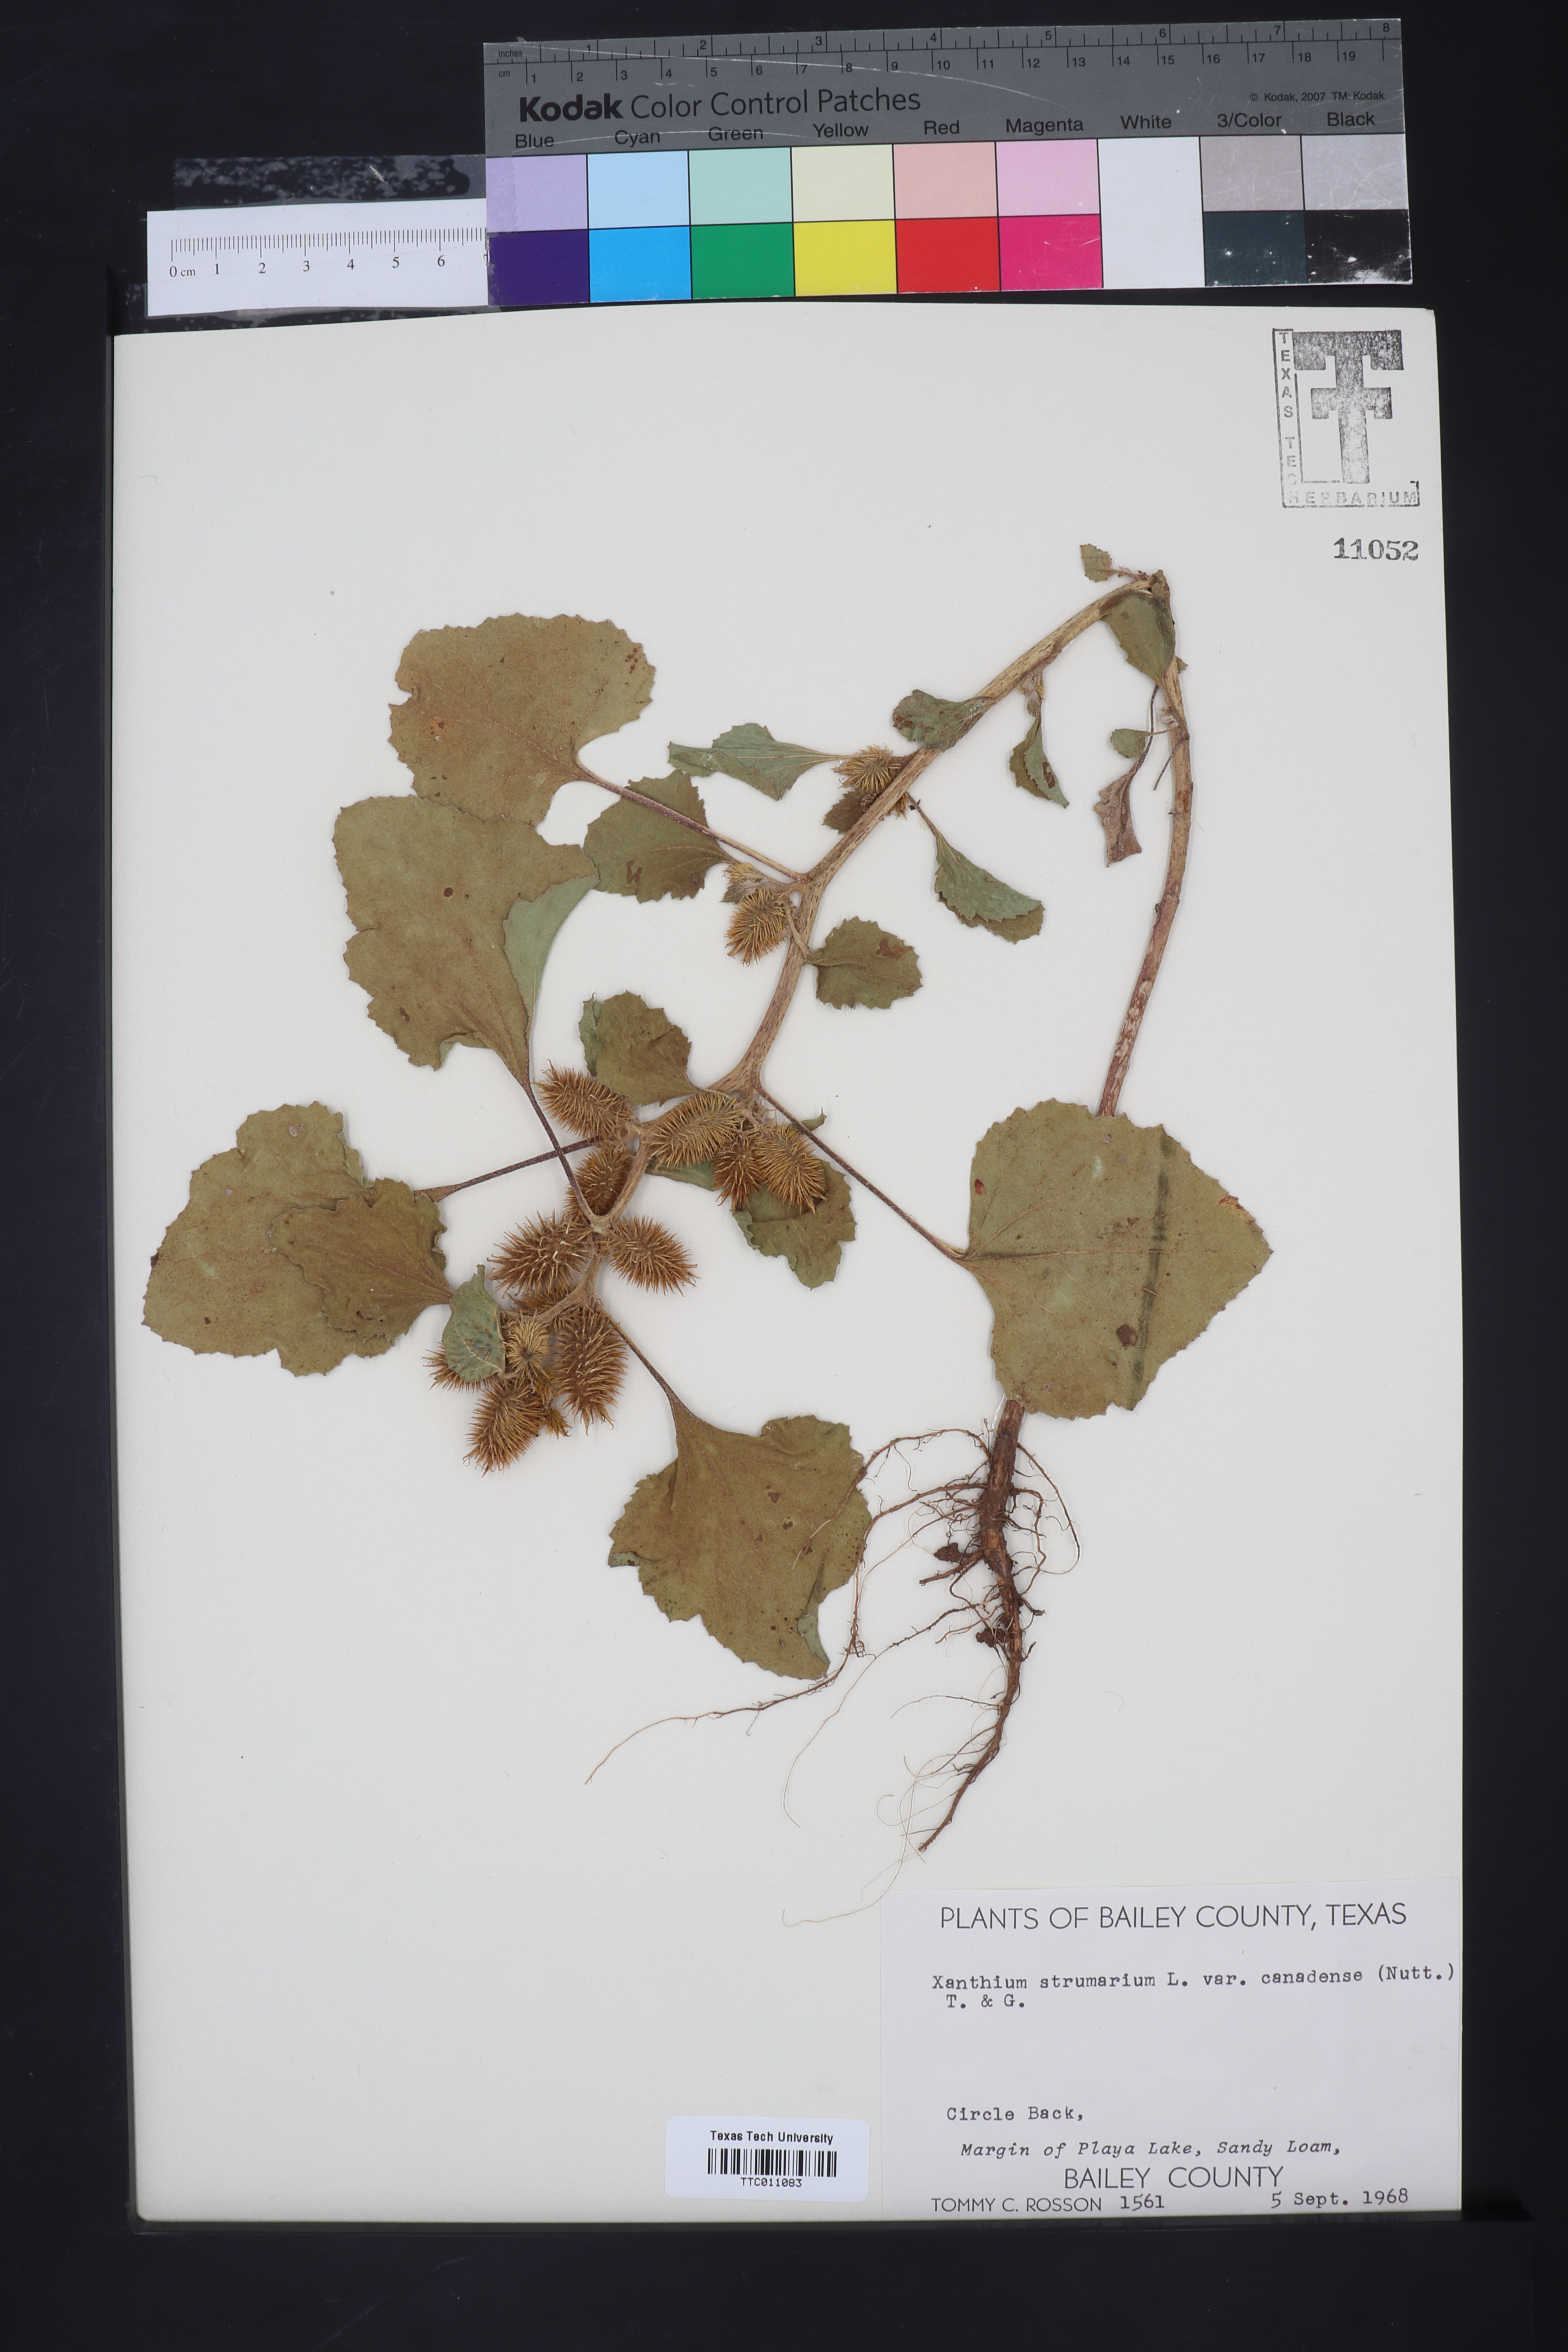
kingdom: Plantae
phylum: Tracheophyta
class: Magnoliopsida
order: Asterales
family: Asteraceae
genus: Xanthium
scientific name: Xanthium orientale
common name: Californian burr
